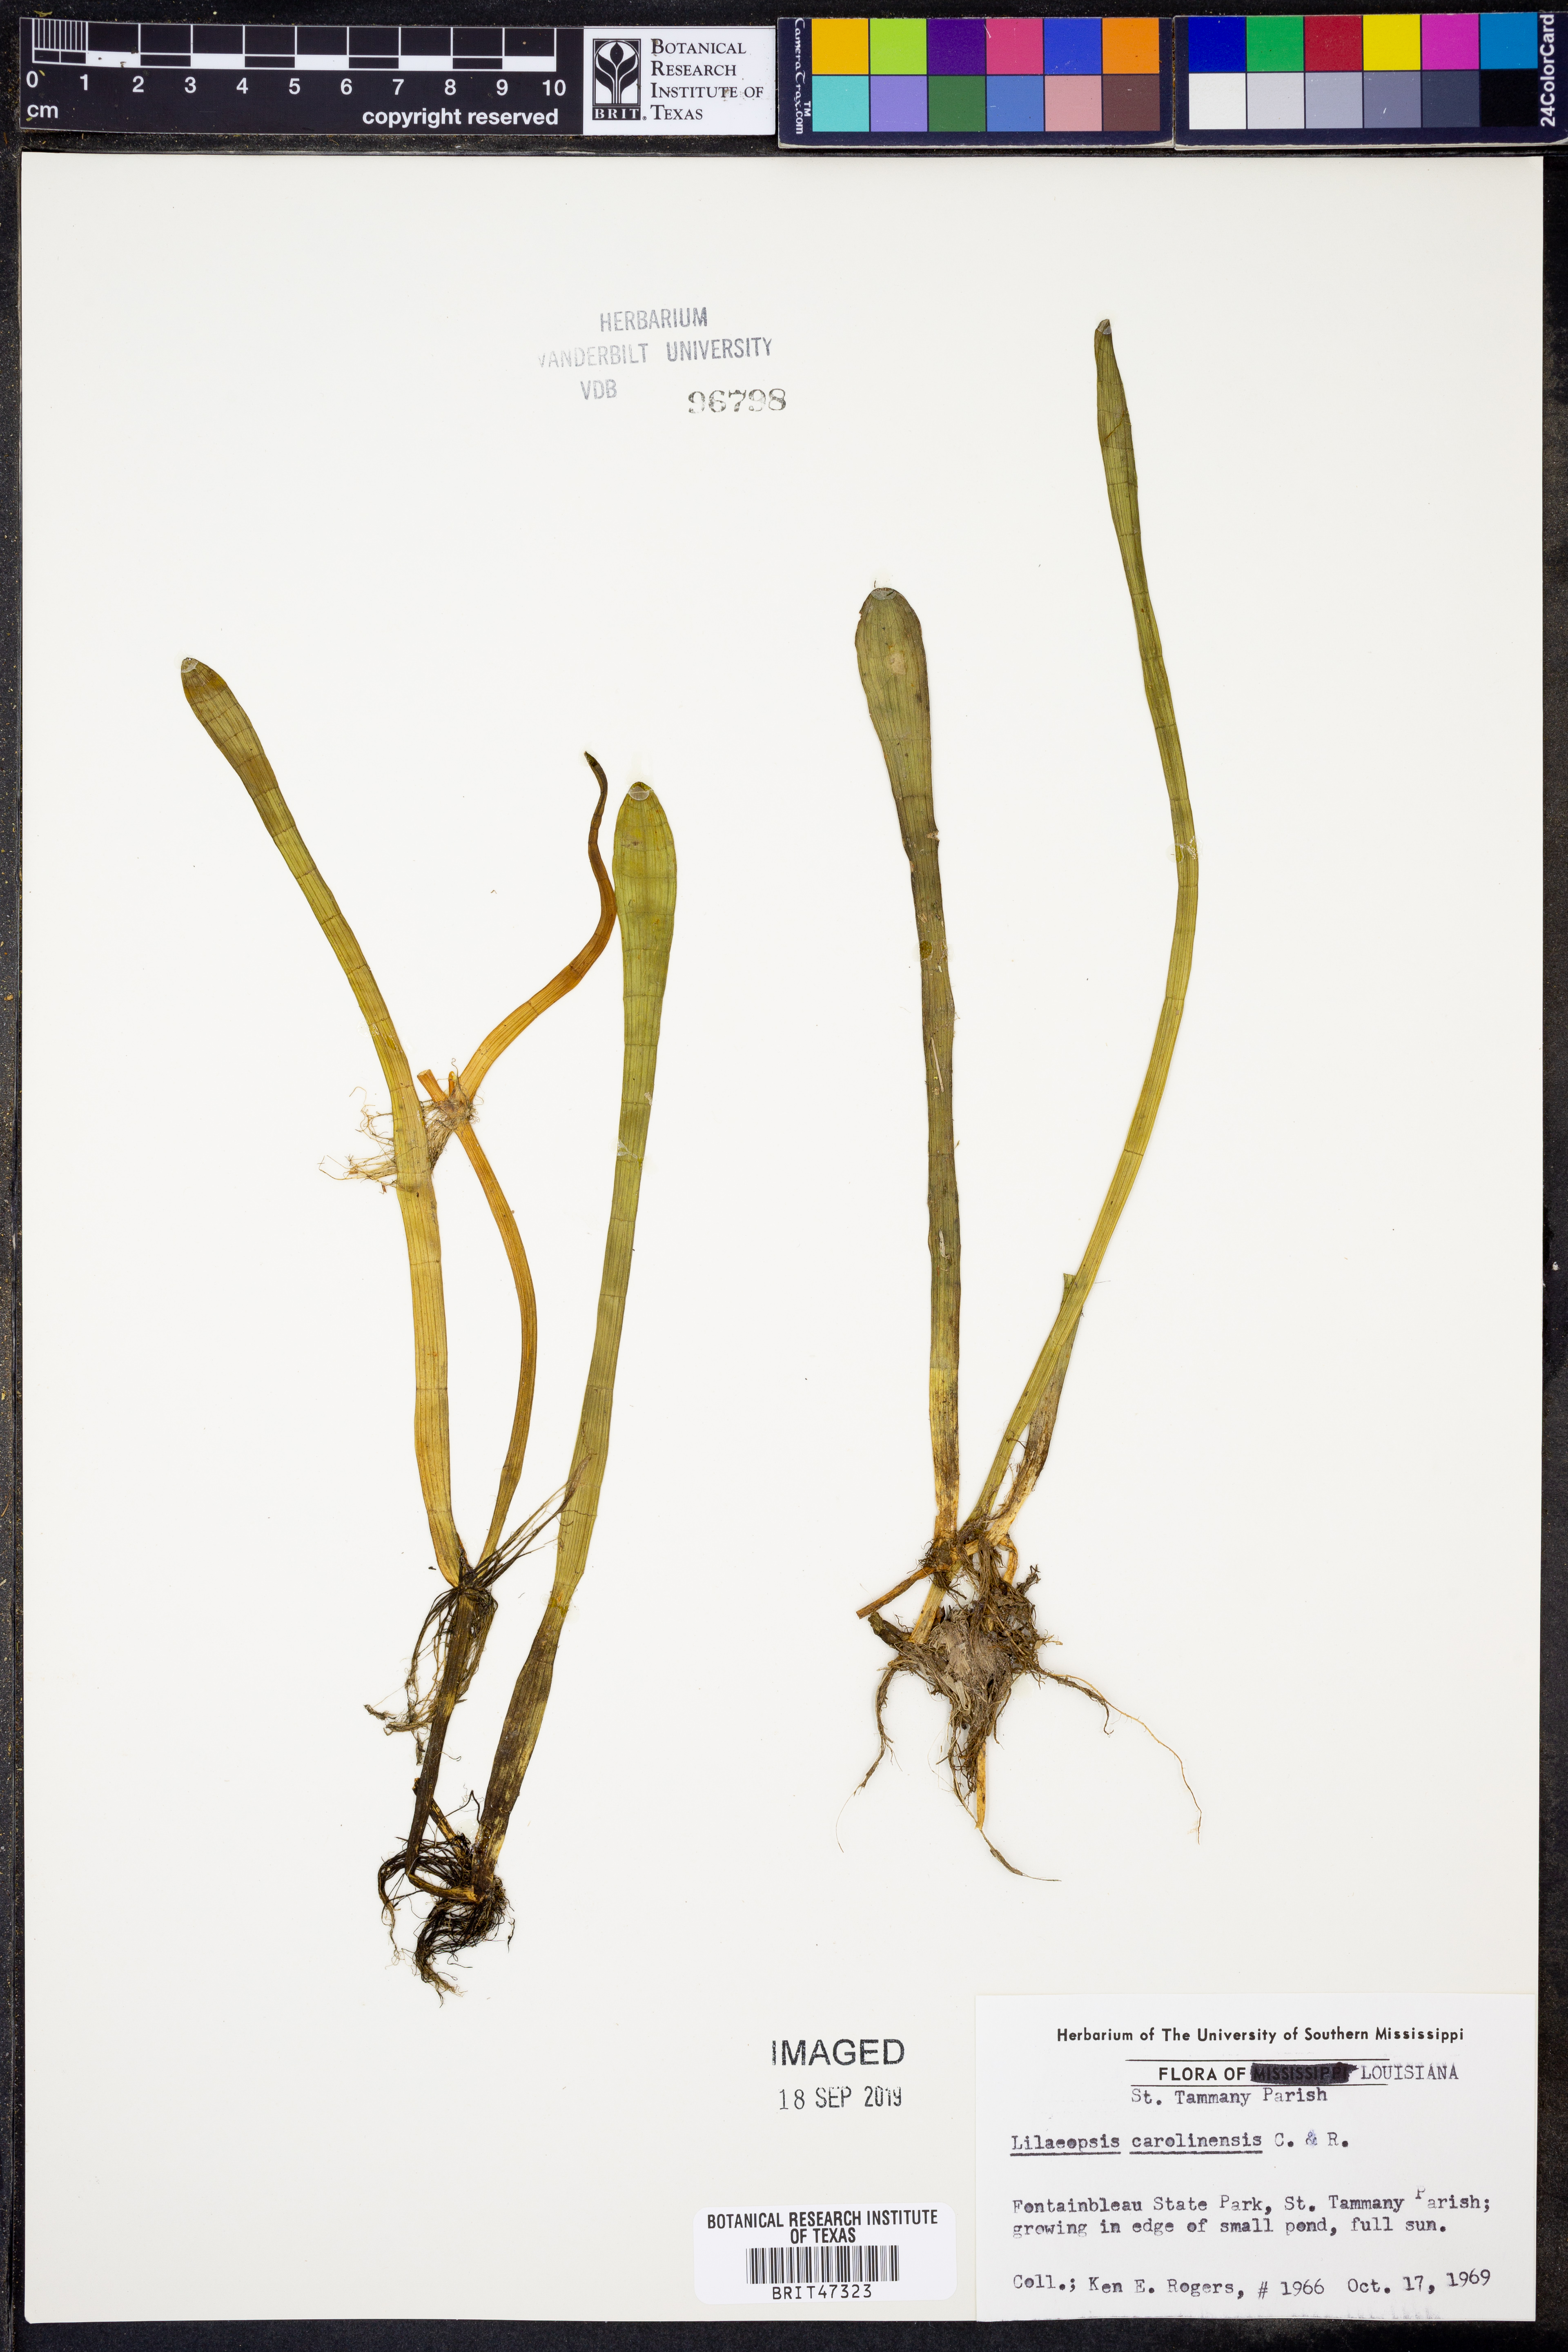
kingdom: Plantae
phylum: Tracheophyta
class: Magnoliopsida
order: Apiales
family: Apiaceae
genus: Lilaeopsis
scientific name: Lilaeopsis carolinensis
